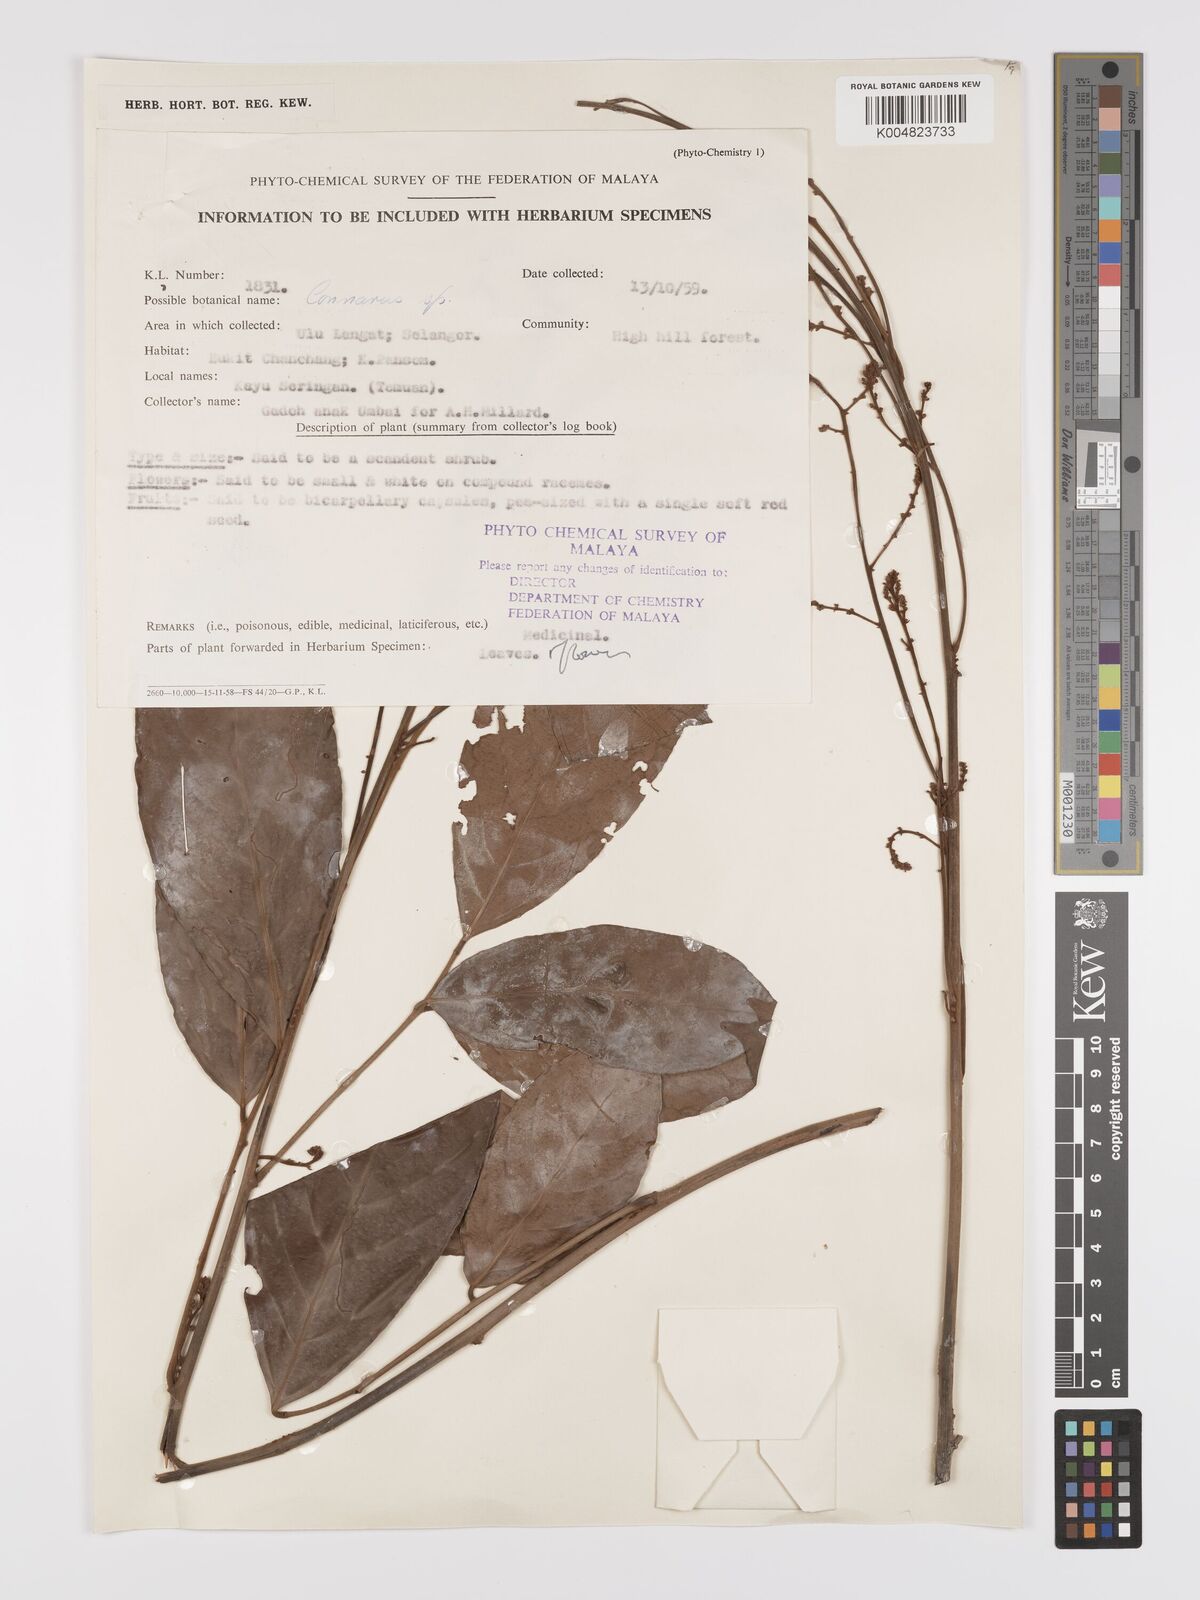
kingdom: Plantae
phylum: Tracheophyta
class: Magnoliopsida
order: Oxalidales
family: Connaraceae
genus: Connarus
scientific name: Connarus
